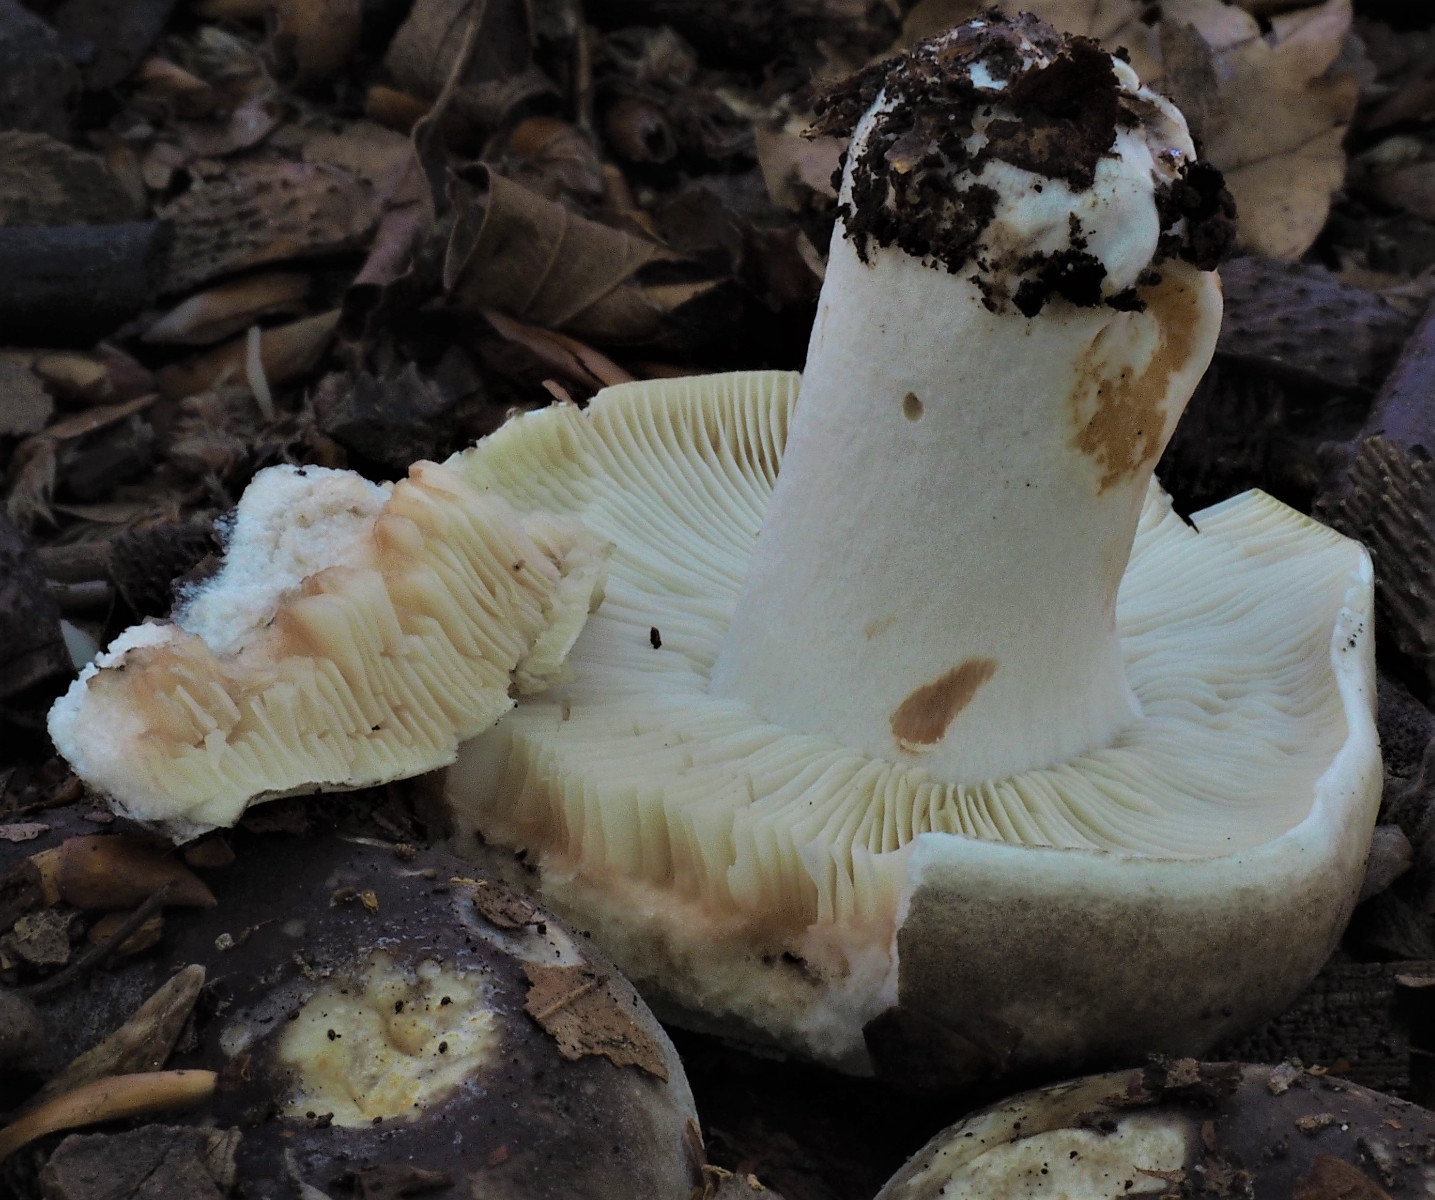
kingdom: Fungi
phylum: Basidiomycota
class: Agaricomycetes
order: Russulales
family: Russulaceae
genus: Russula
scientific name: Russula densifolia
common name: tætbladet skørhat
